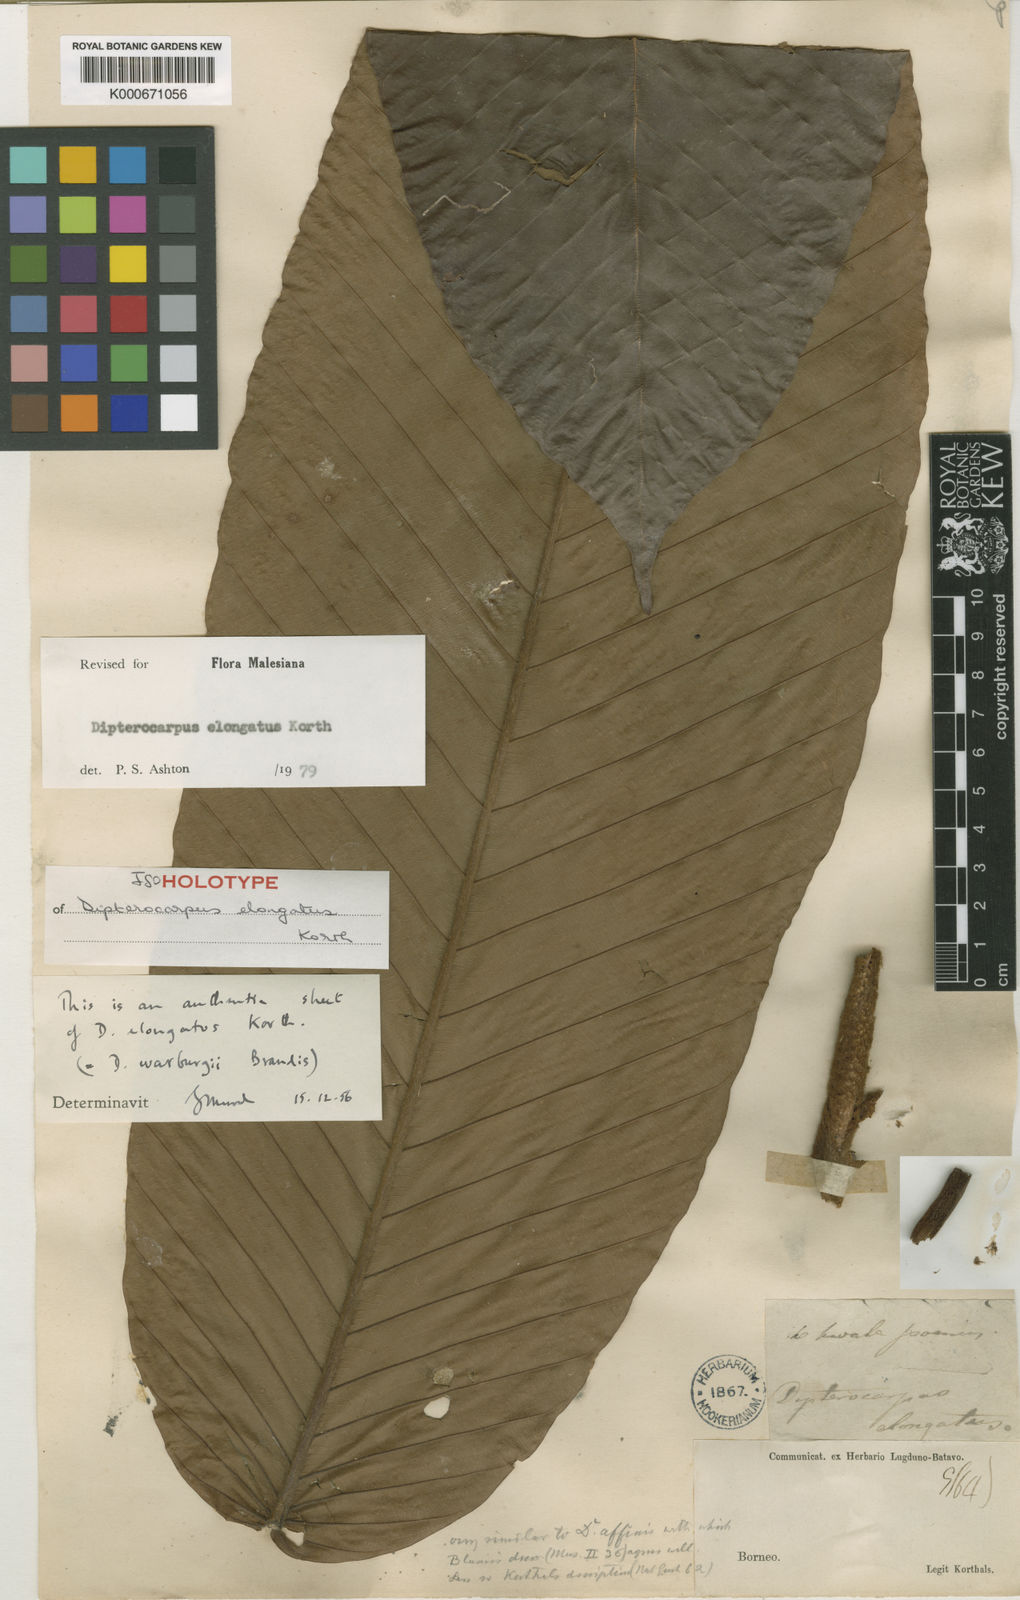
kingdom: Plantae
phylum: Tracheophyta
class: Magnoliopsida
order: Malvales
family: Dipterocarpaceae
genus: Dipterocarpus
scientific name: Dipterocarpus elongatus
